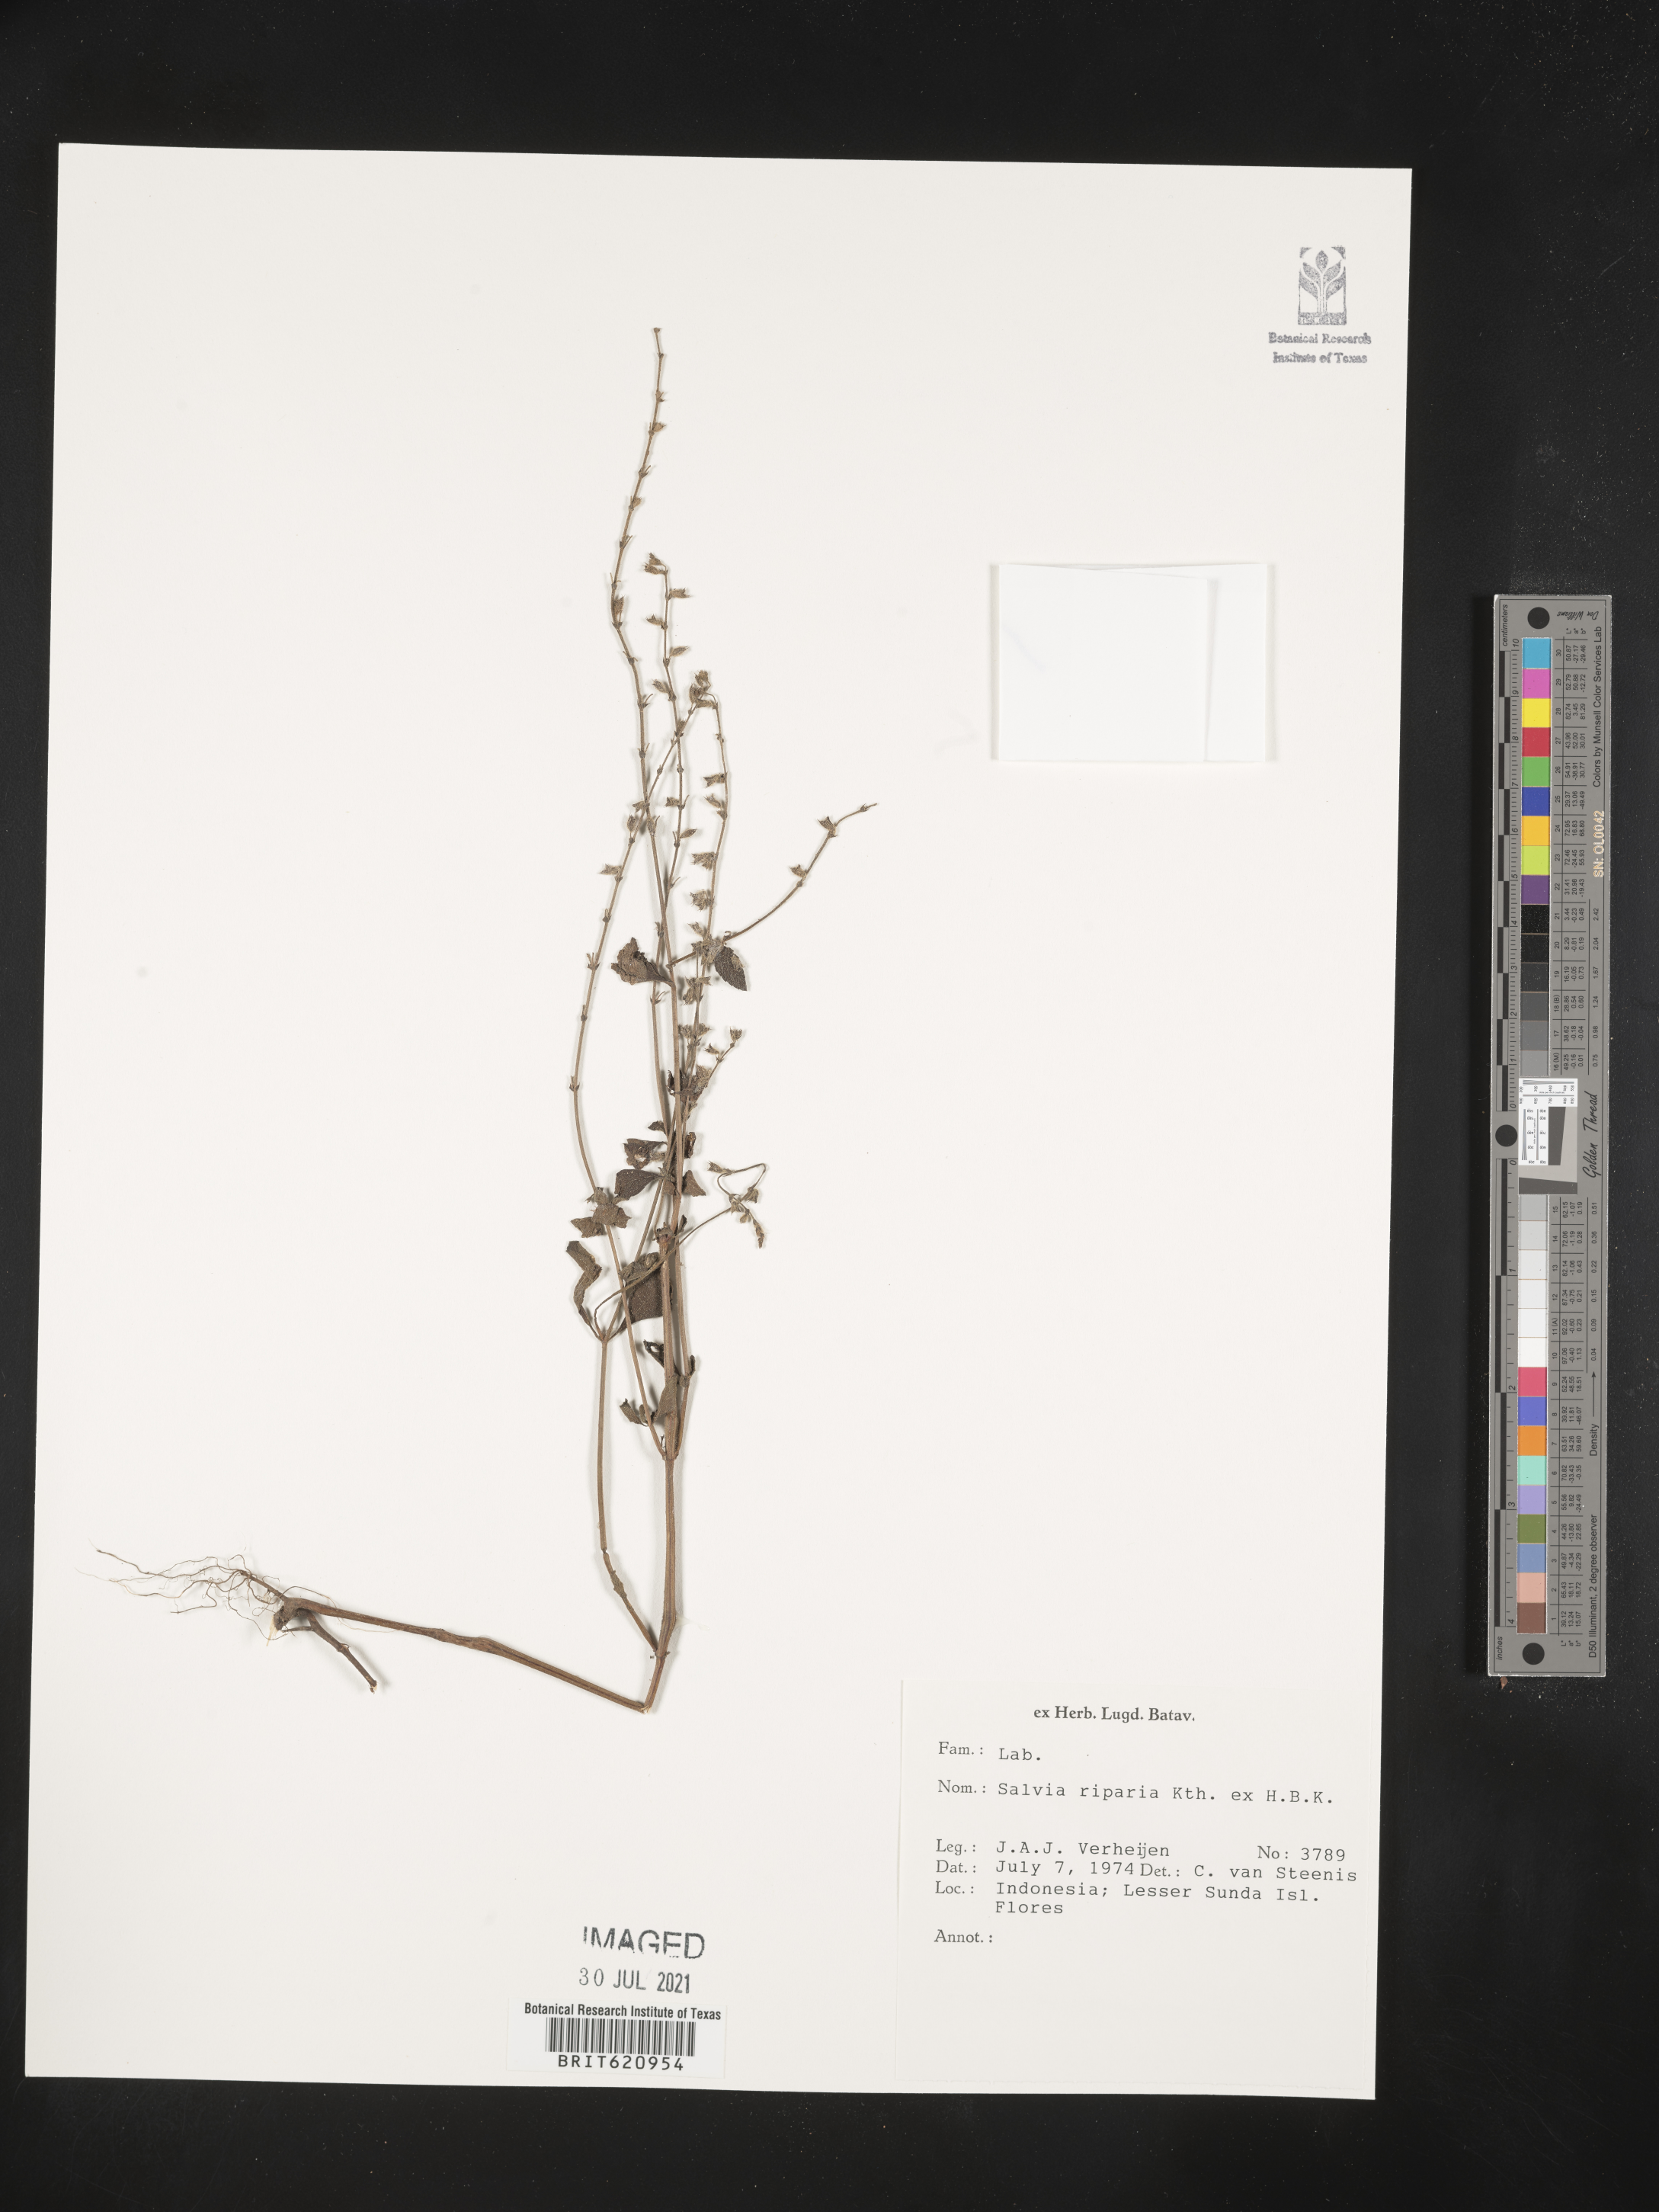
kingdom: Plantae
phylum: Tracheophyta
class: Magnoliopsida
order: Lamiales
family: Lamiaceae
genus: Salvia
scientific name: Salvia misella
